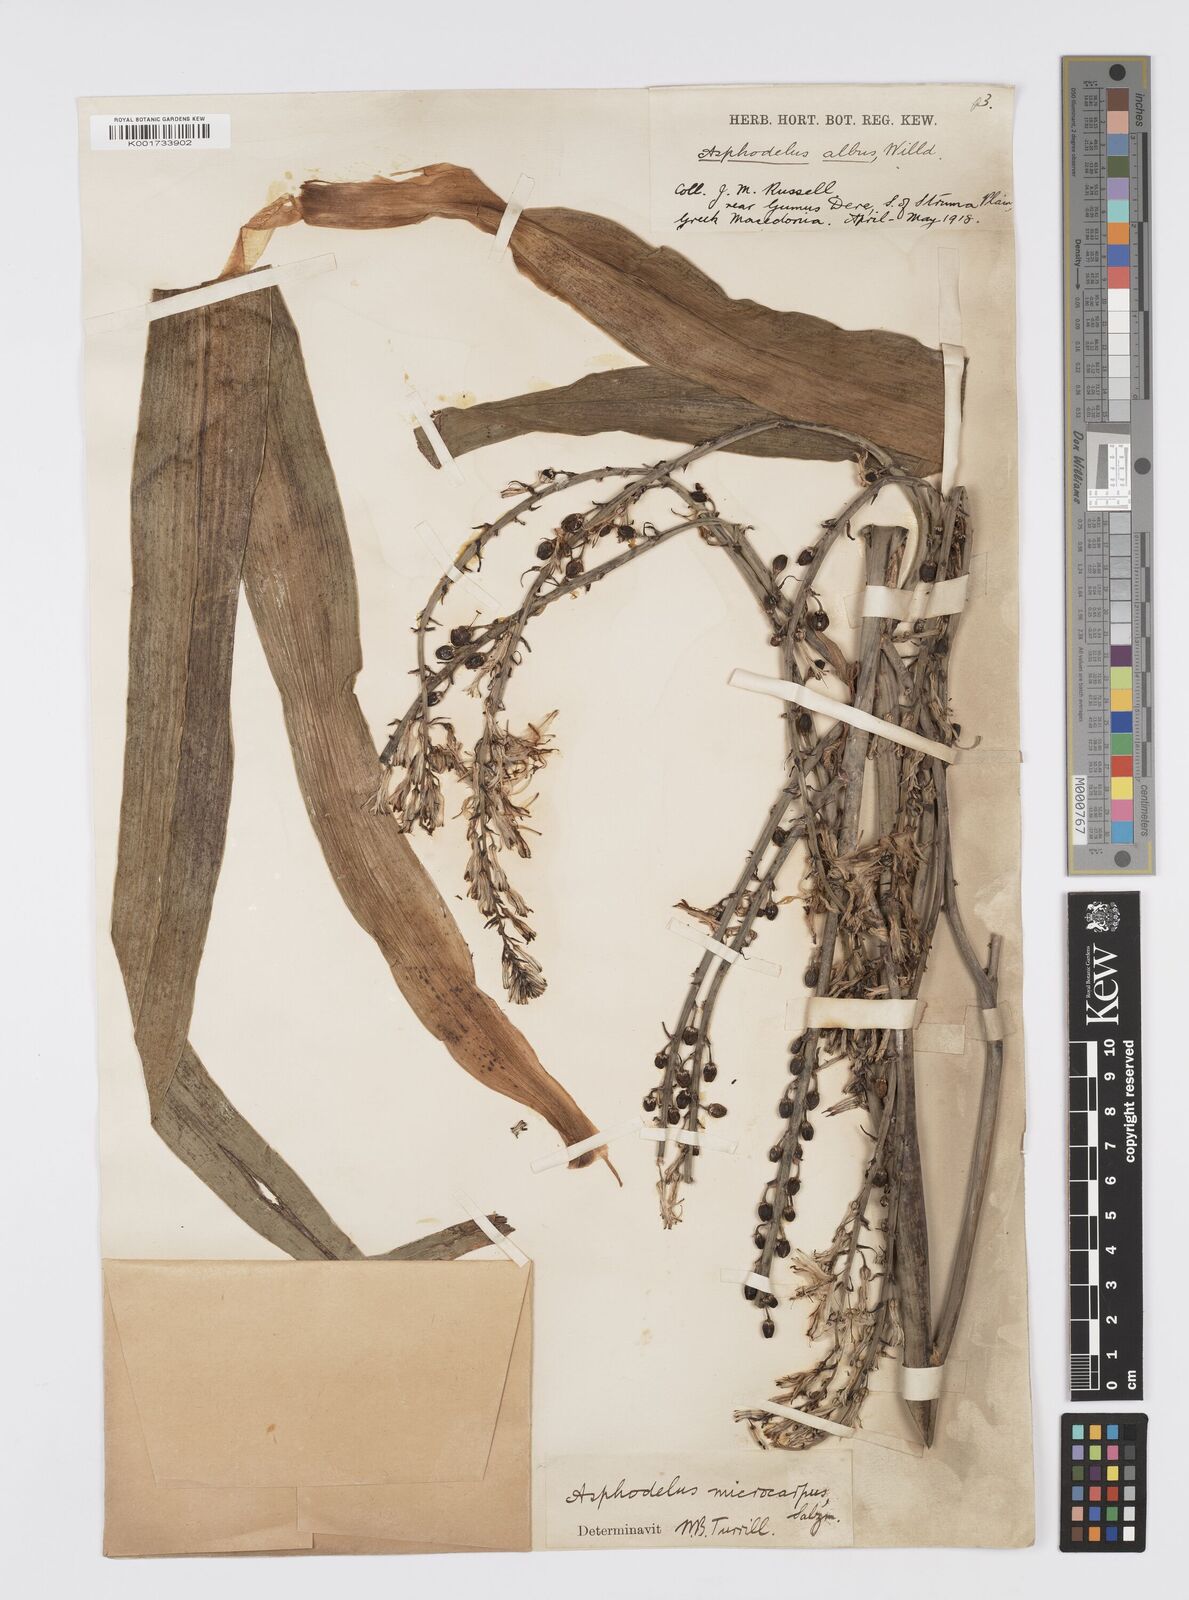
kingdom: Plantae
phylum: Tracheophyta
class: Liliopsida
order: Asparagales
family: Asphodelaceae
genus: Asphodelus
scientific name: Asphodelus ramosus
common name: Silverrod
